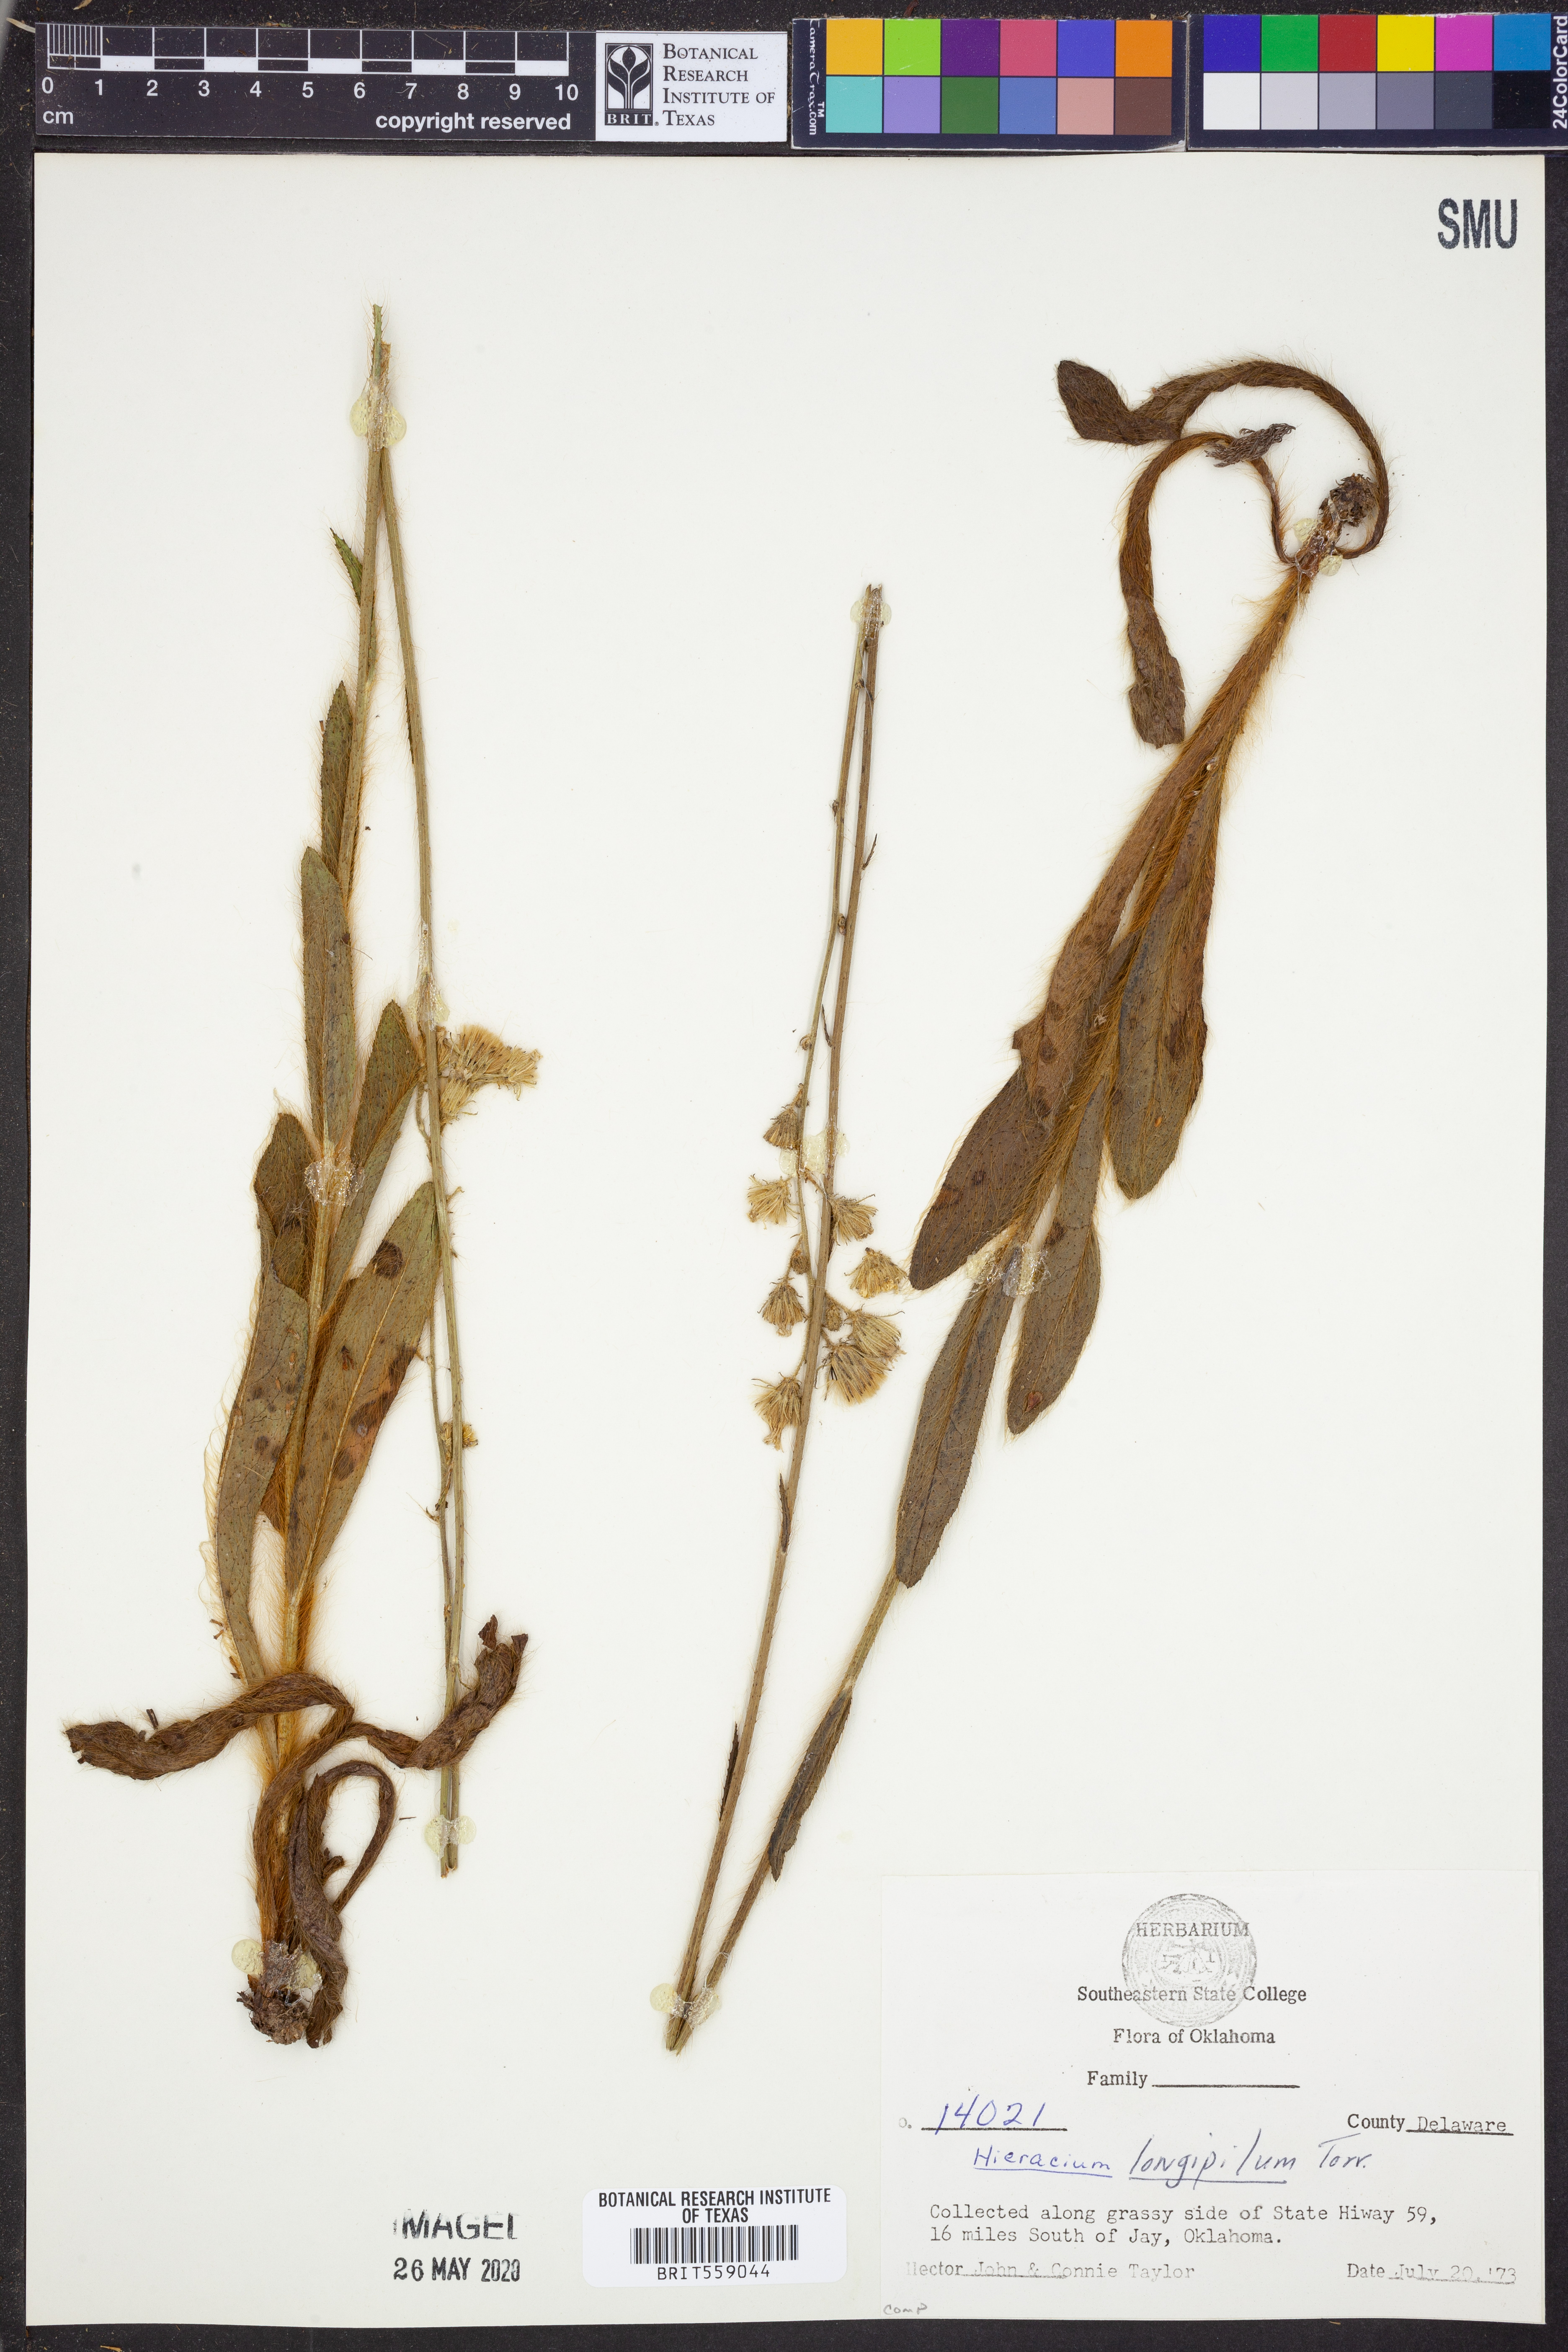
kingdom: Plantae
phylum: Tracheophyta
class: Magnoliopsida
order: Asterales
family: Asteraceae
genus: Hieracium
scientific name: Hieracium longipilum
